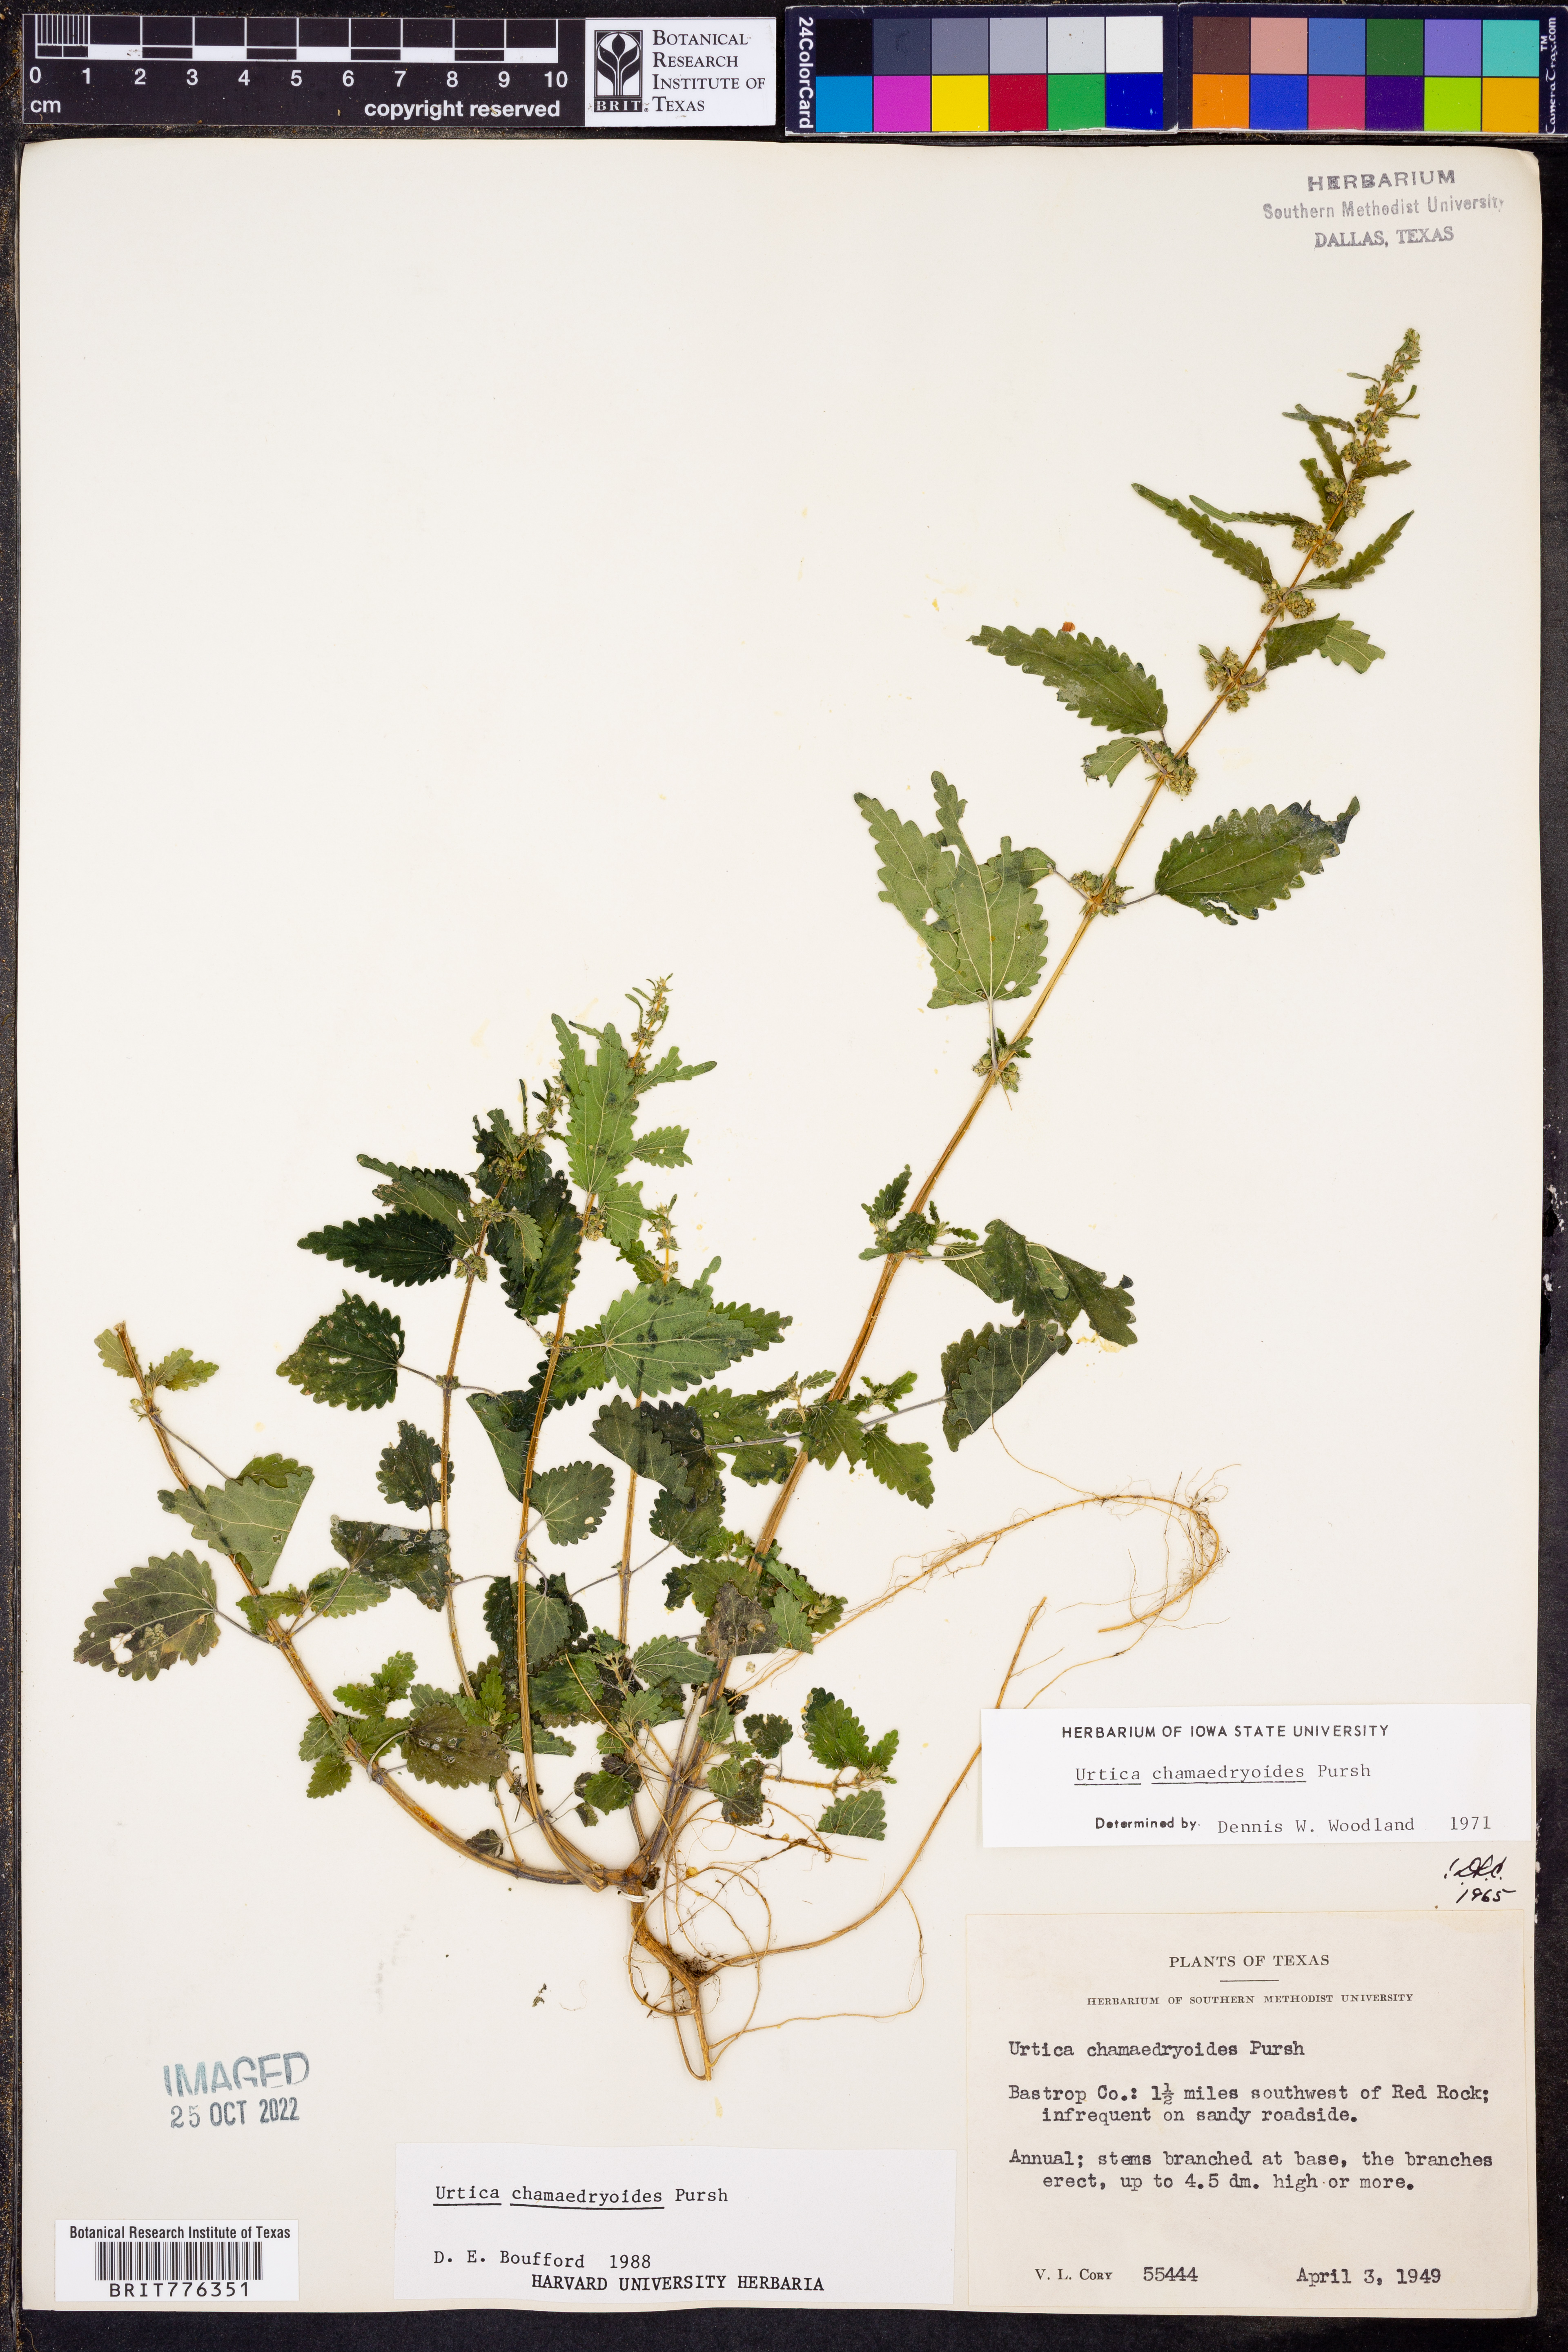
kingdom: Plantae
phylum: Tracheophyta
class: Magnoliopsida
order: Rosales
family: Urticaceae
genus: Urtica
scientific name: Urtica chamaedryoides
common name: Heart-leaf nettle
